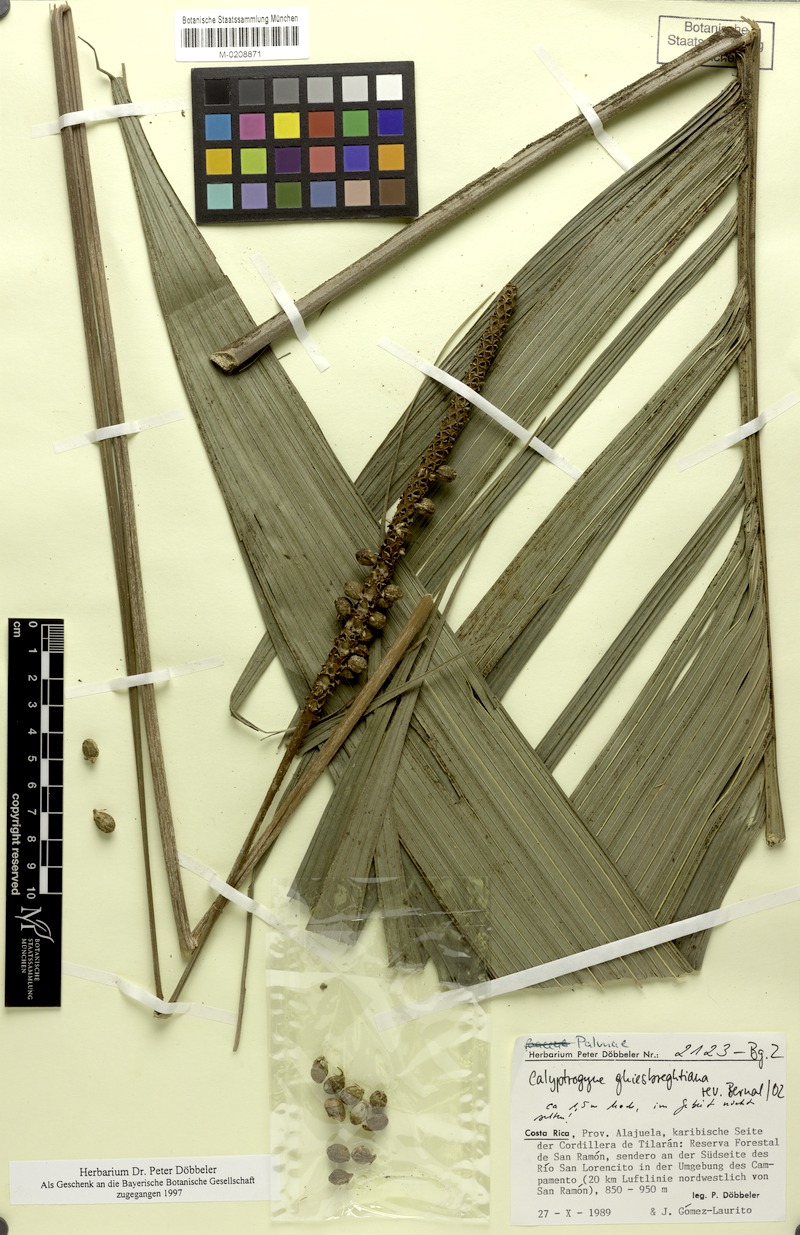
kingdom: Plantae
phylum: Tracheophyta
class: Liliopsida
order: Arecales
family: Arecaceae
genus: Calyptrogyne
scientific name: Calyptrogyne ghiesbreghtiana
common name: Coligallo
